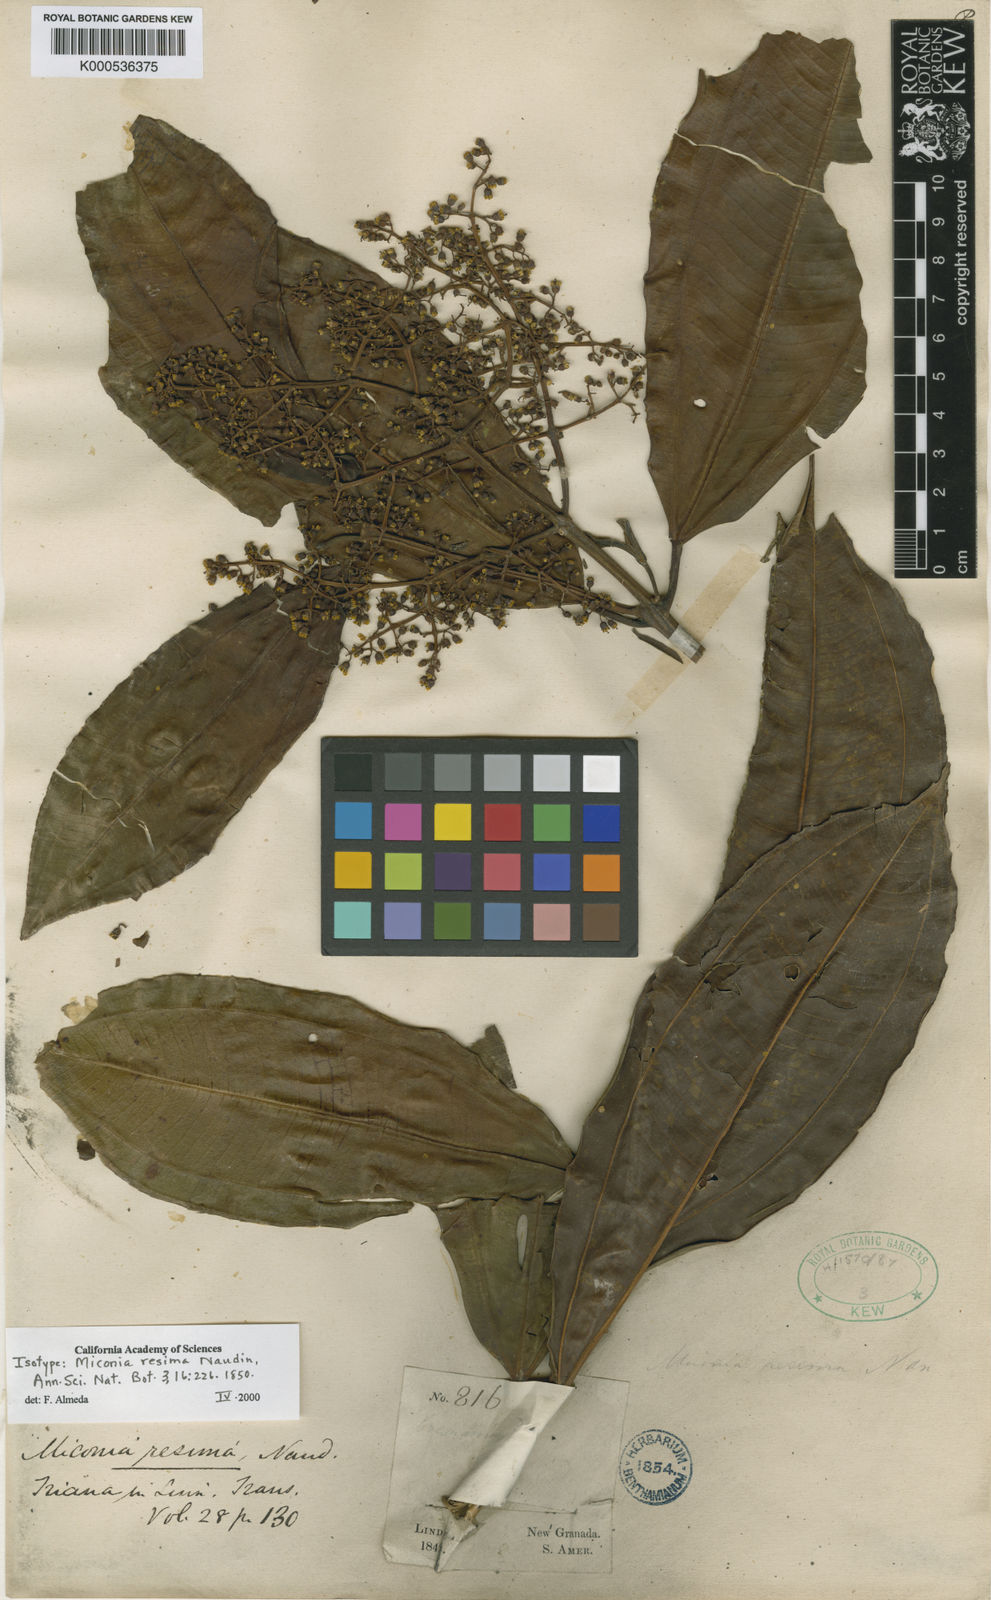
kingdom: Plantae
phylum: Tracheophyta
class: Magnoliopsida
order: Myrtales
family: Melastomataceae
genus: Miconia
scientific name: Miconia resima
